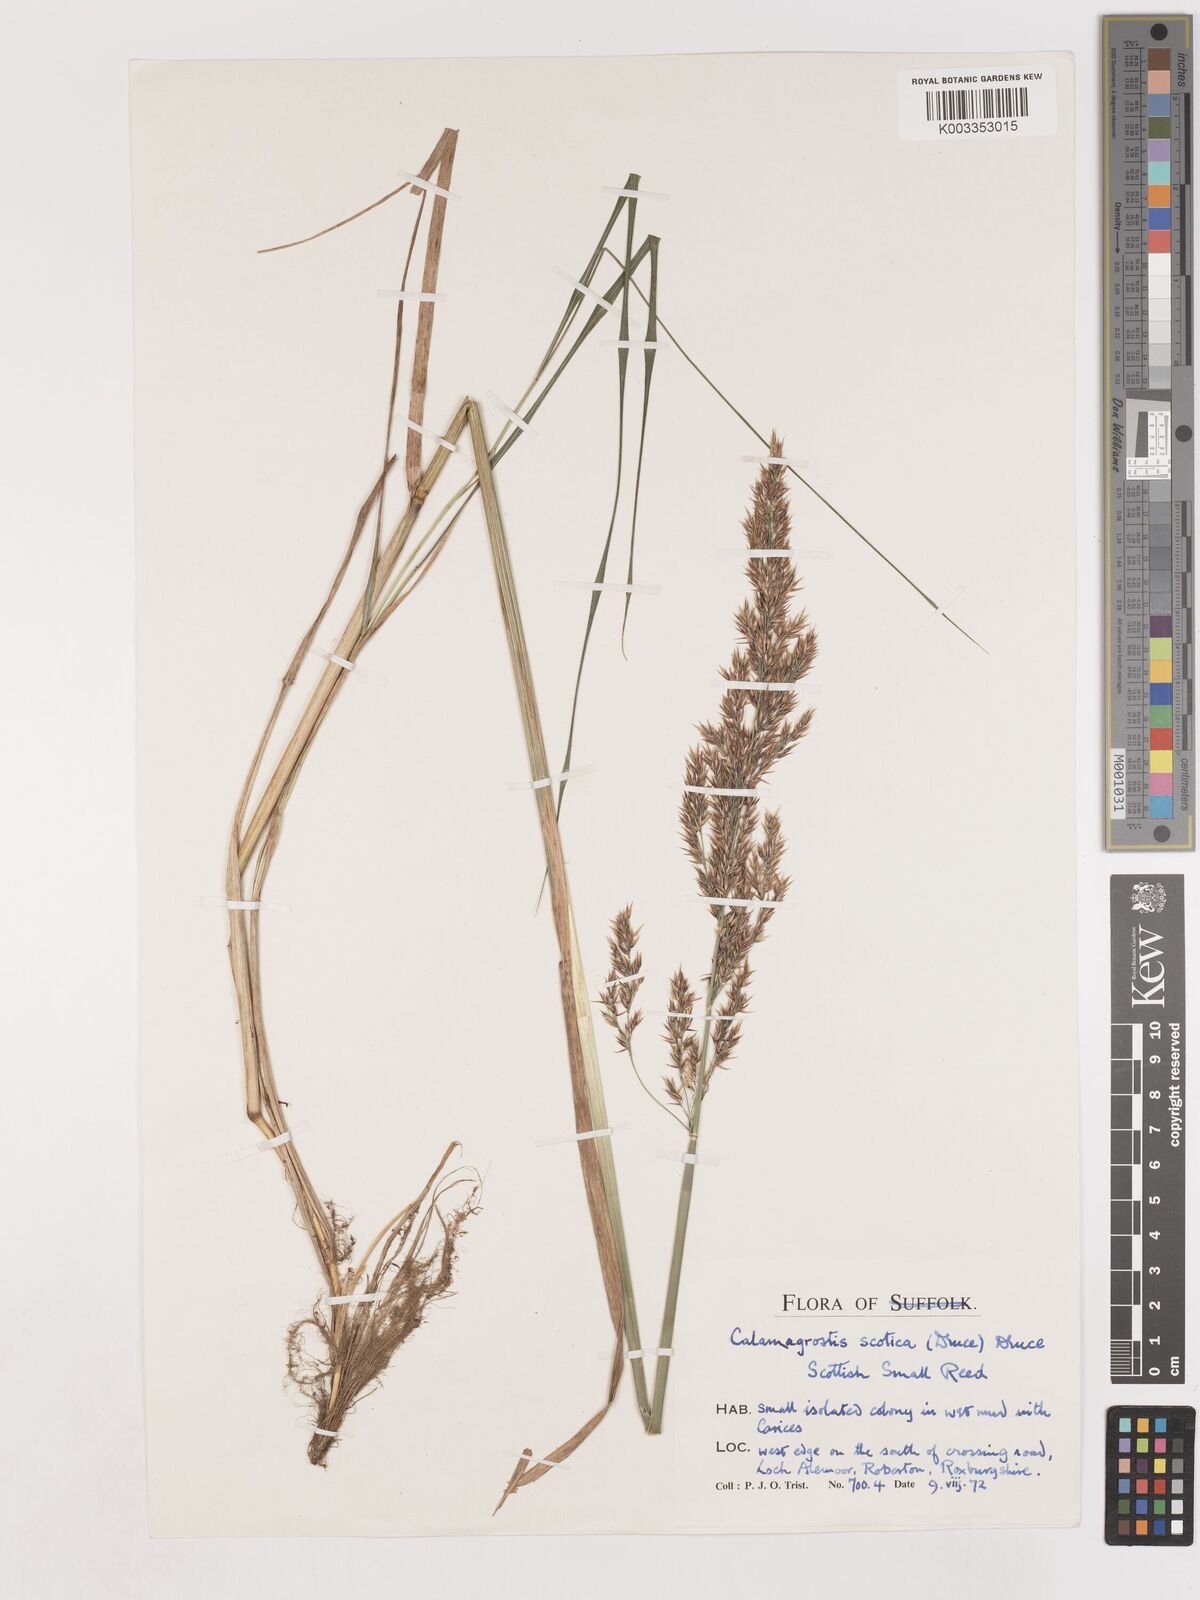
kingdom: Plantae
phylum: Tracheophyta
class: Liliopsida
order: Poales
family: Poaceae
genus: Calamagrostis
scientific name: Calamagrostis canescens
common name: Purple small-reed
